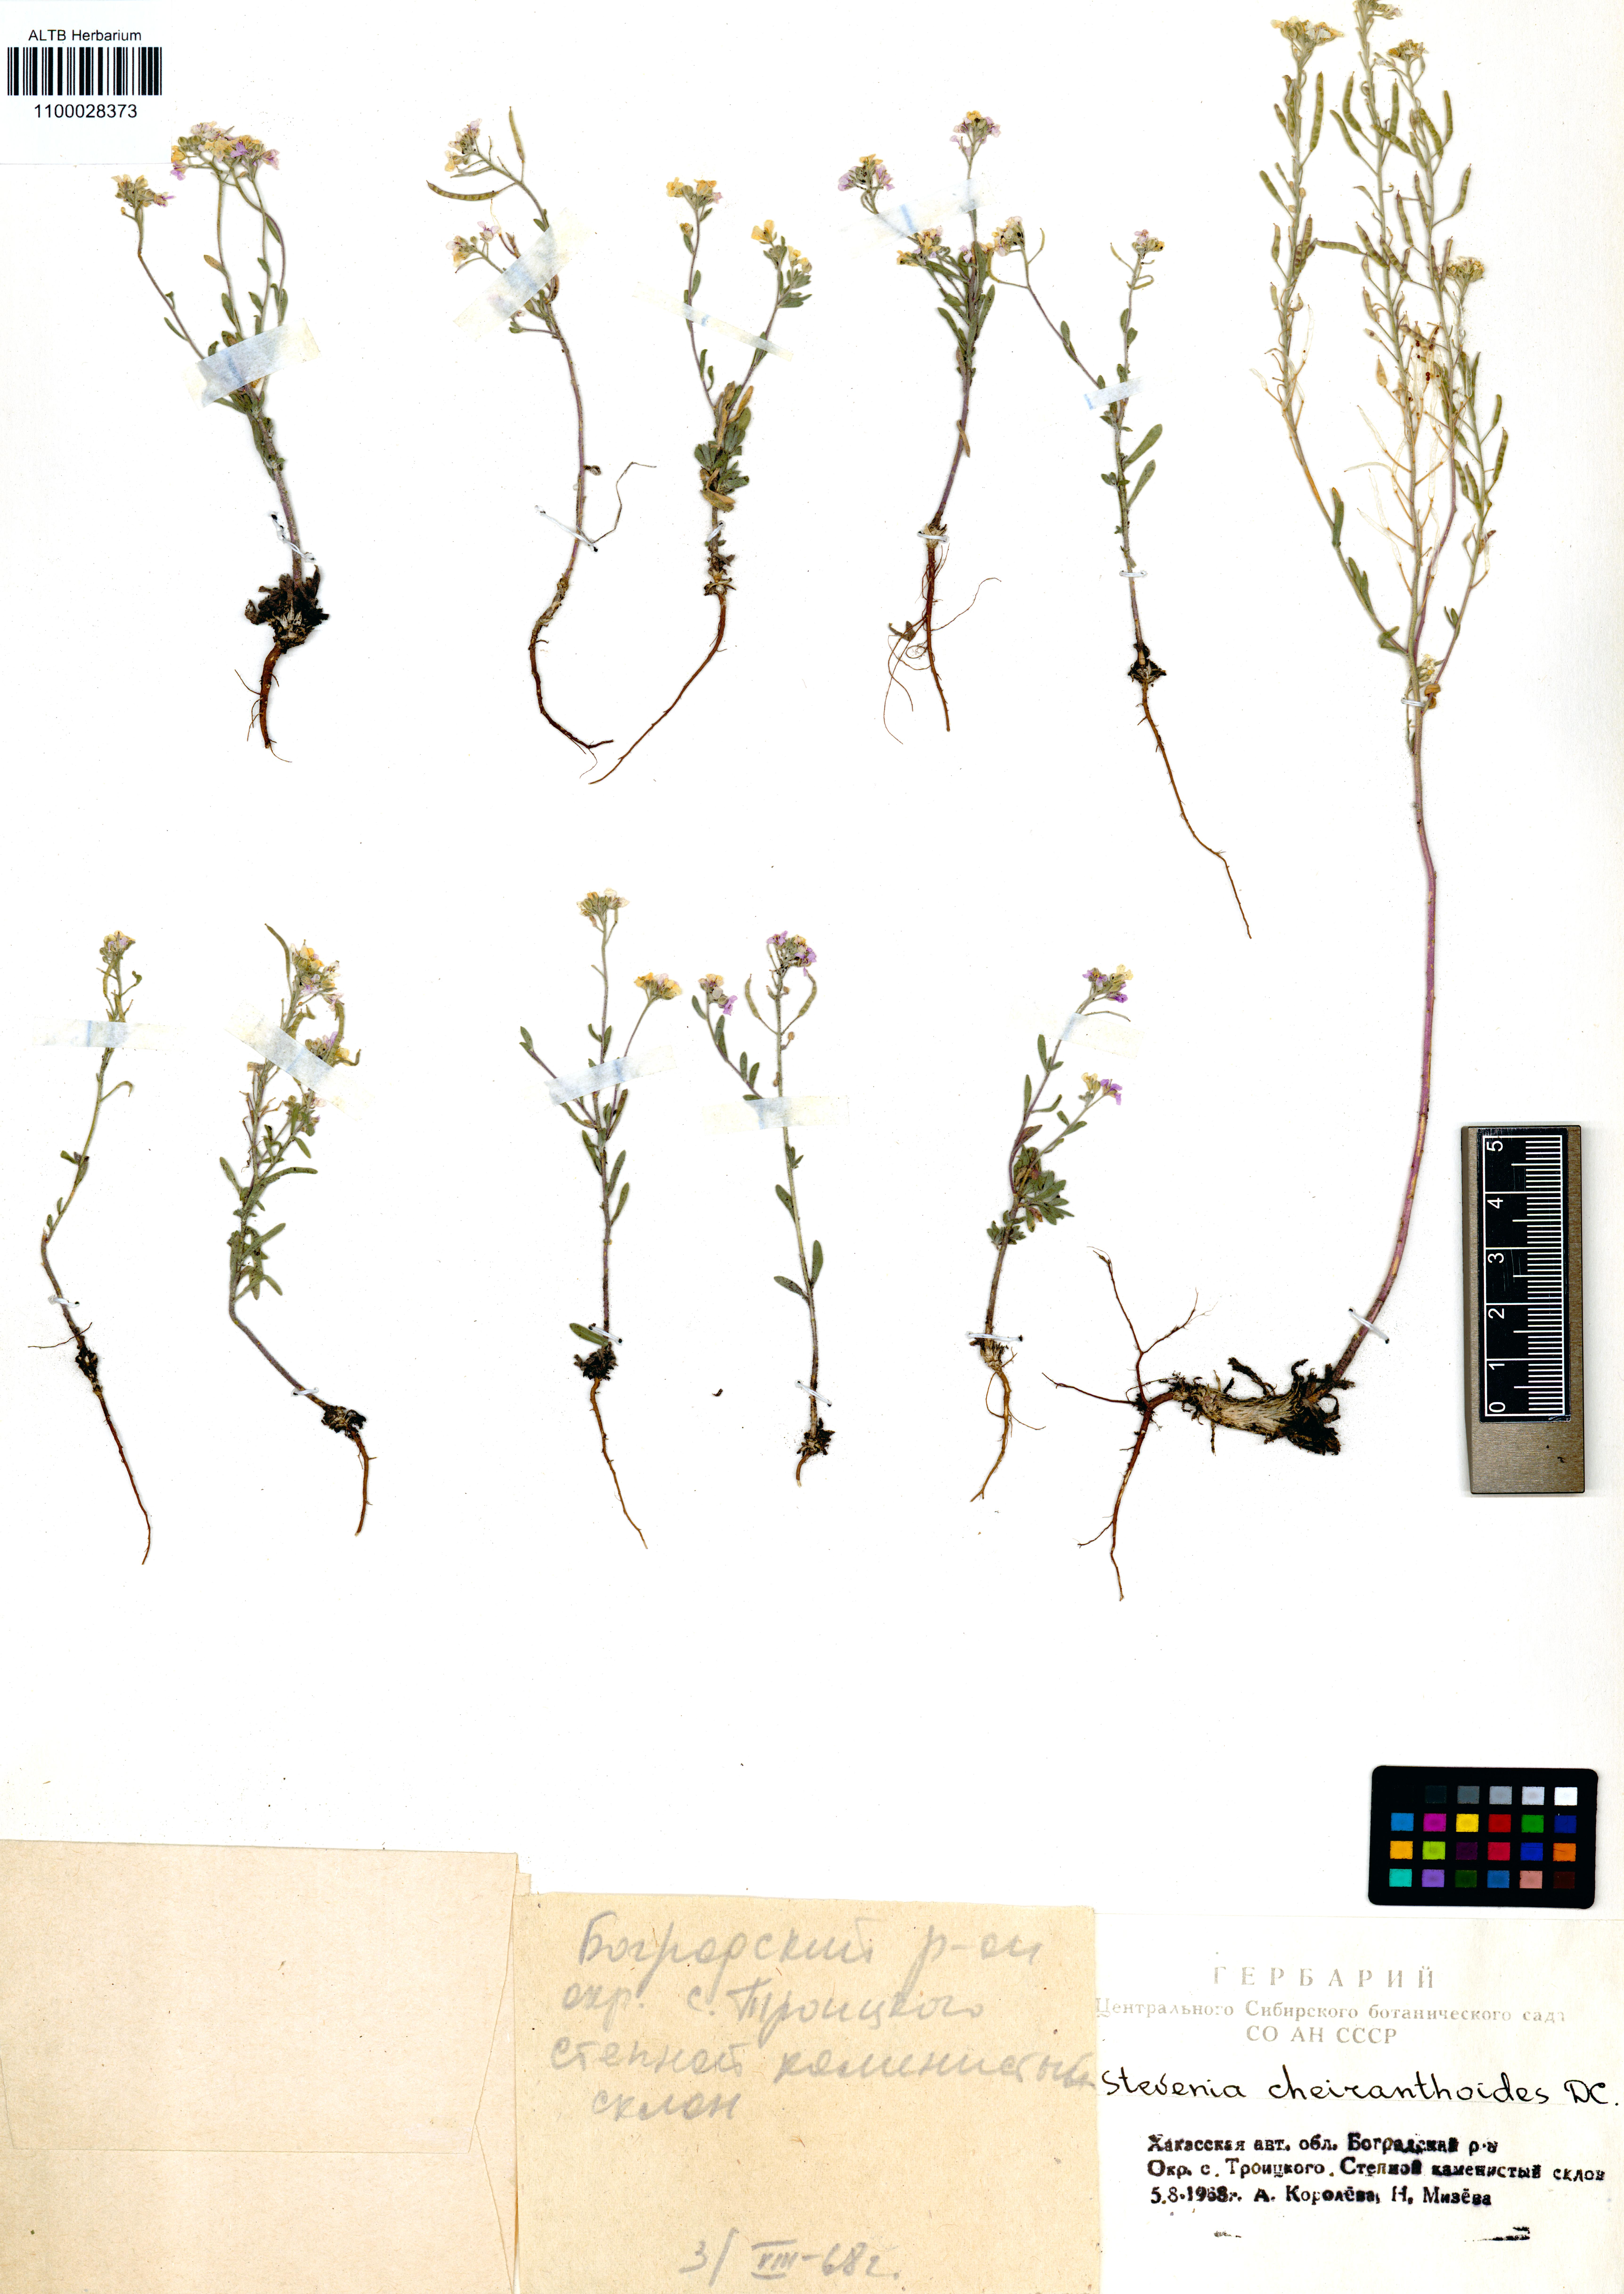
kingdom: Plantae
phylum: Tracheophyta
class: Magnoliopsida
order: Brassicales
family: Brassicaceae
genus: Stevenia
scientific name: Stevenia incarnata
